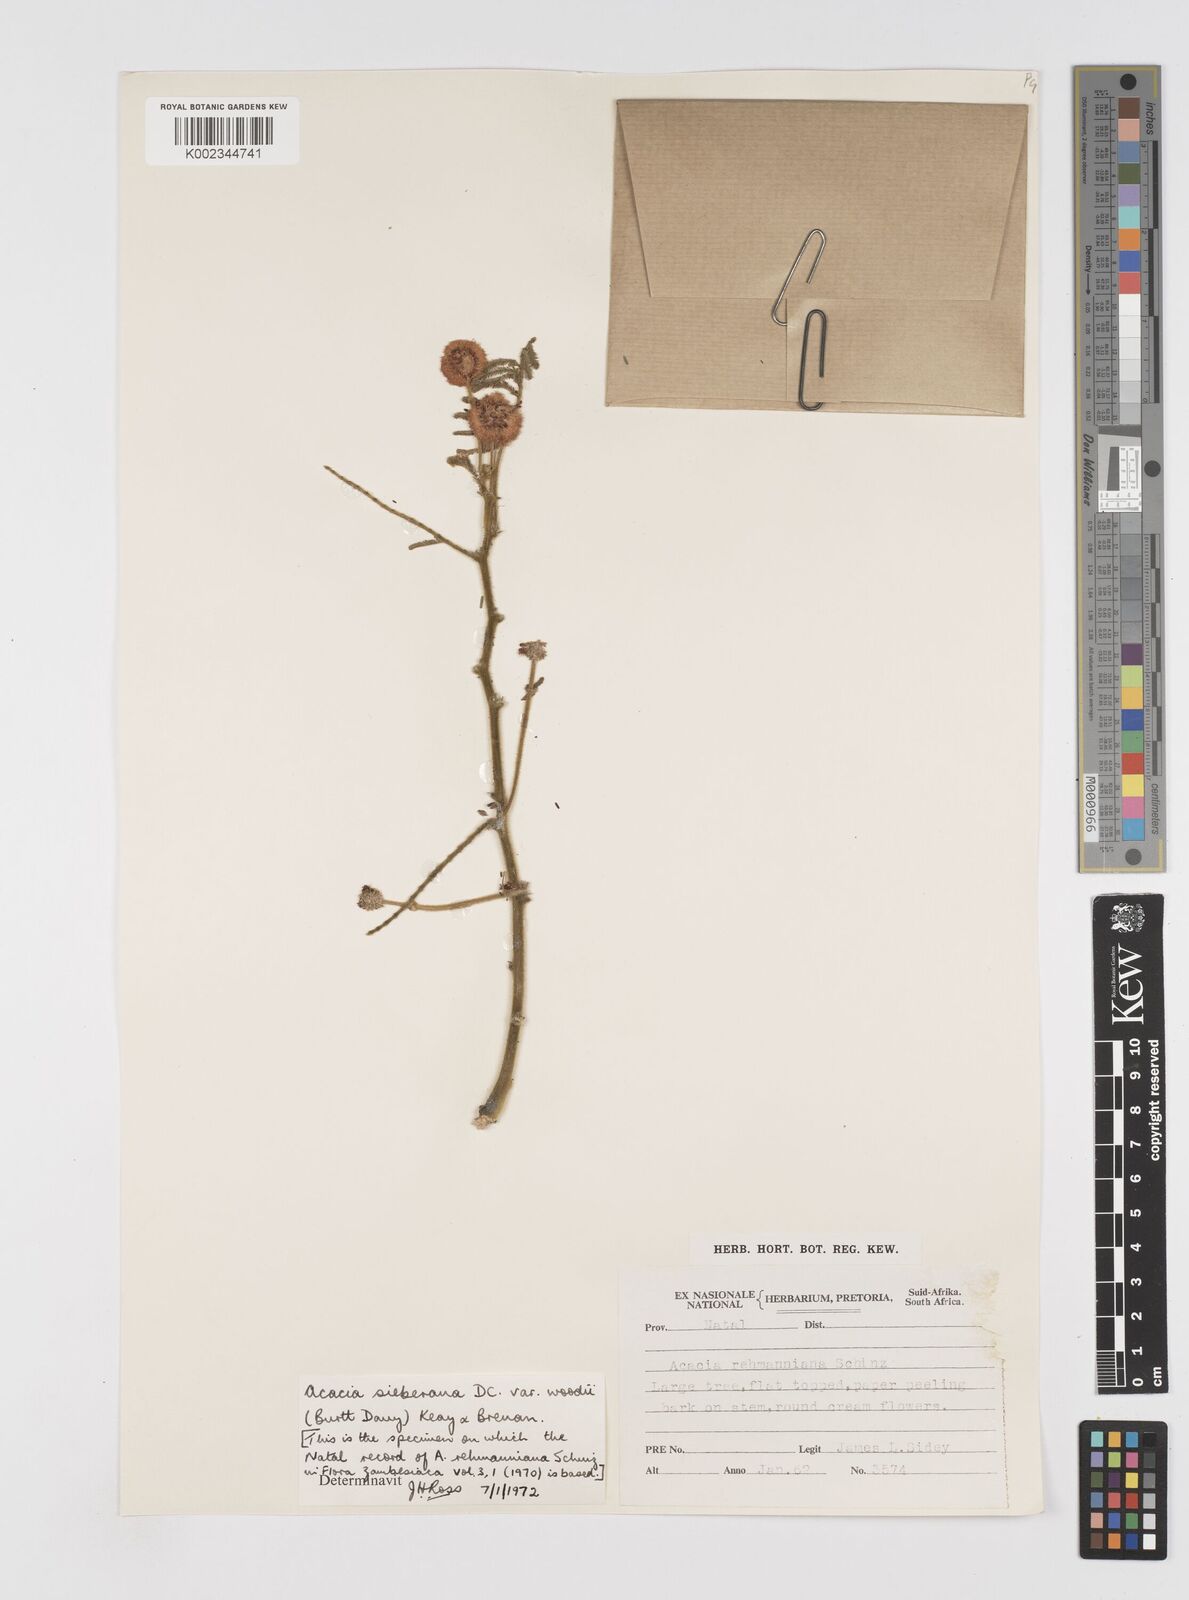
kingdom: Plantae
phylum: Tracheophyta
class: Magnoliopsida
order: Fabales
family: Fabaceae
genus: Acacia
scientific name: Acacia hamiltoniana
